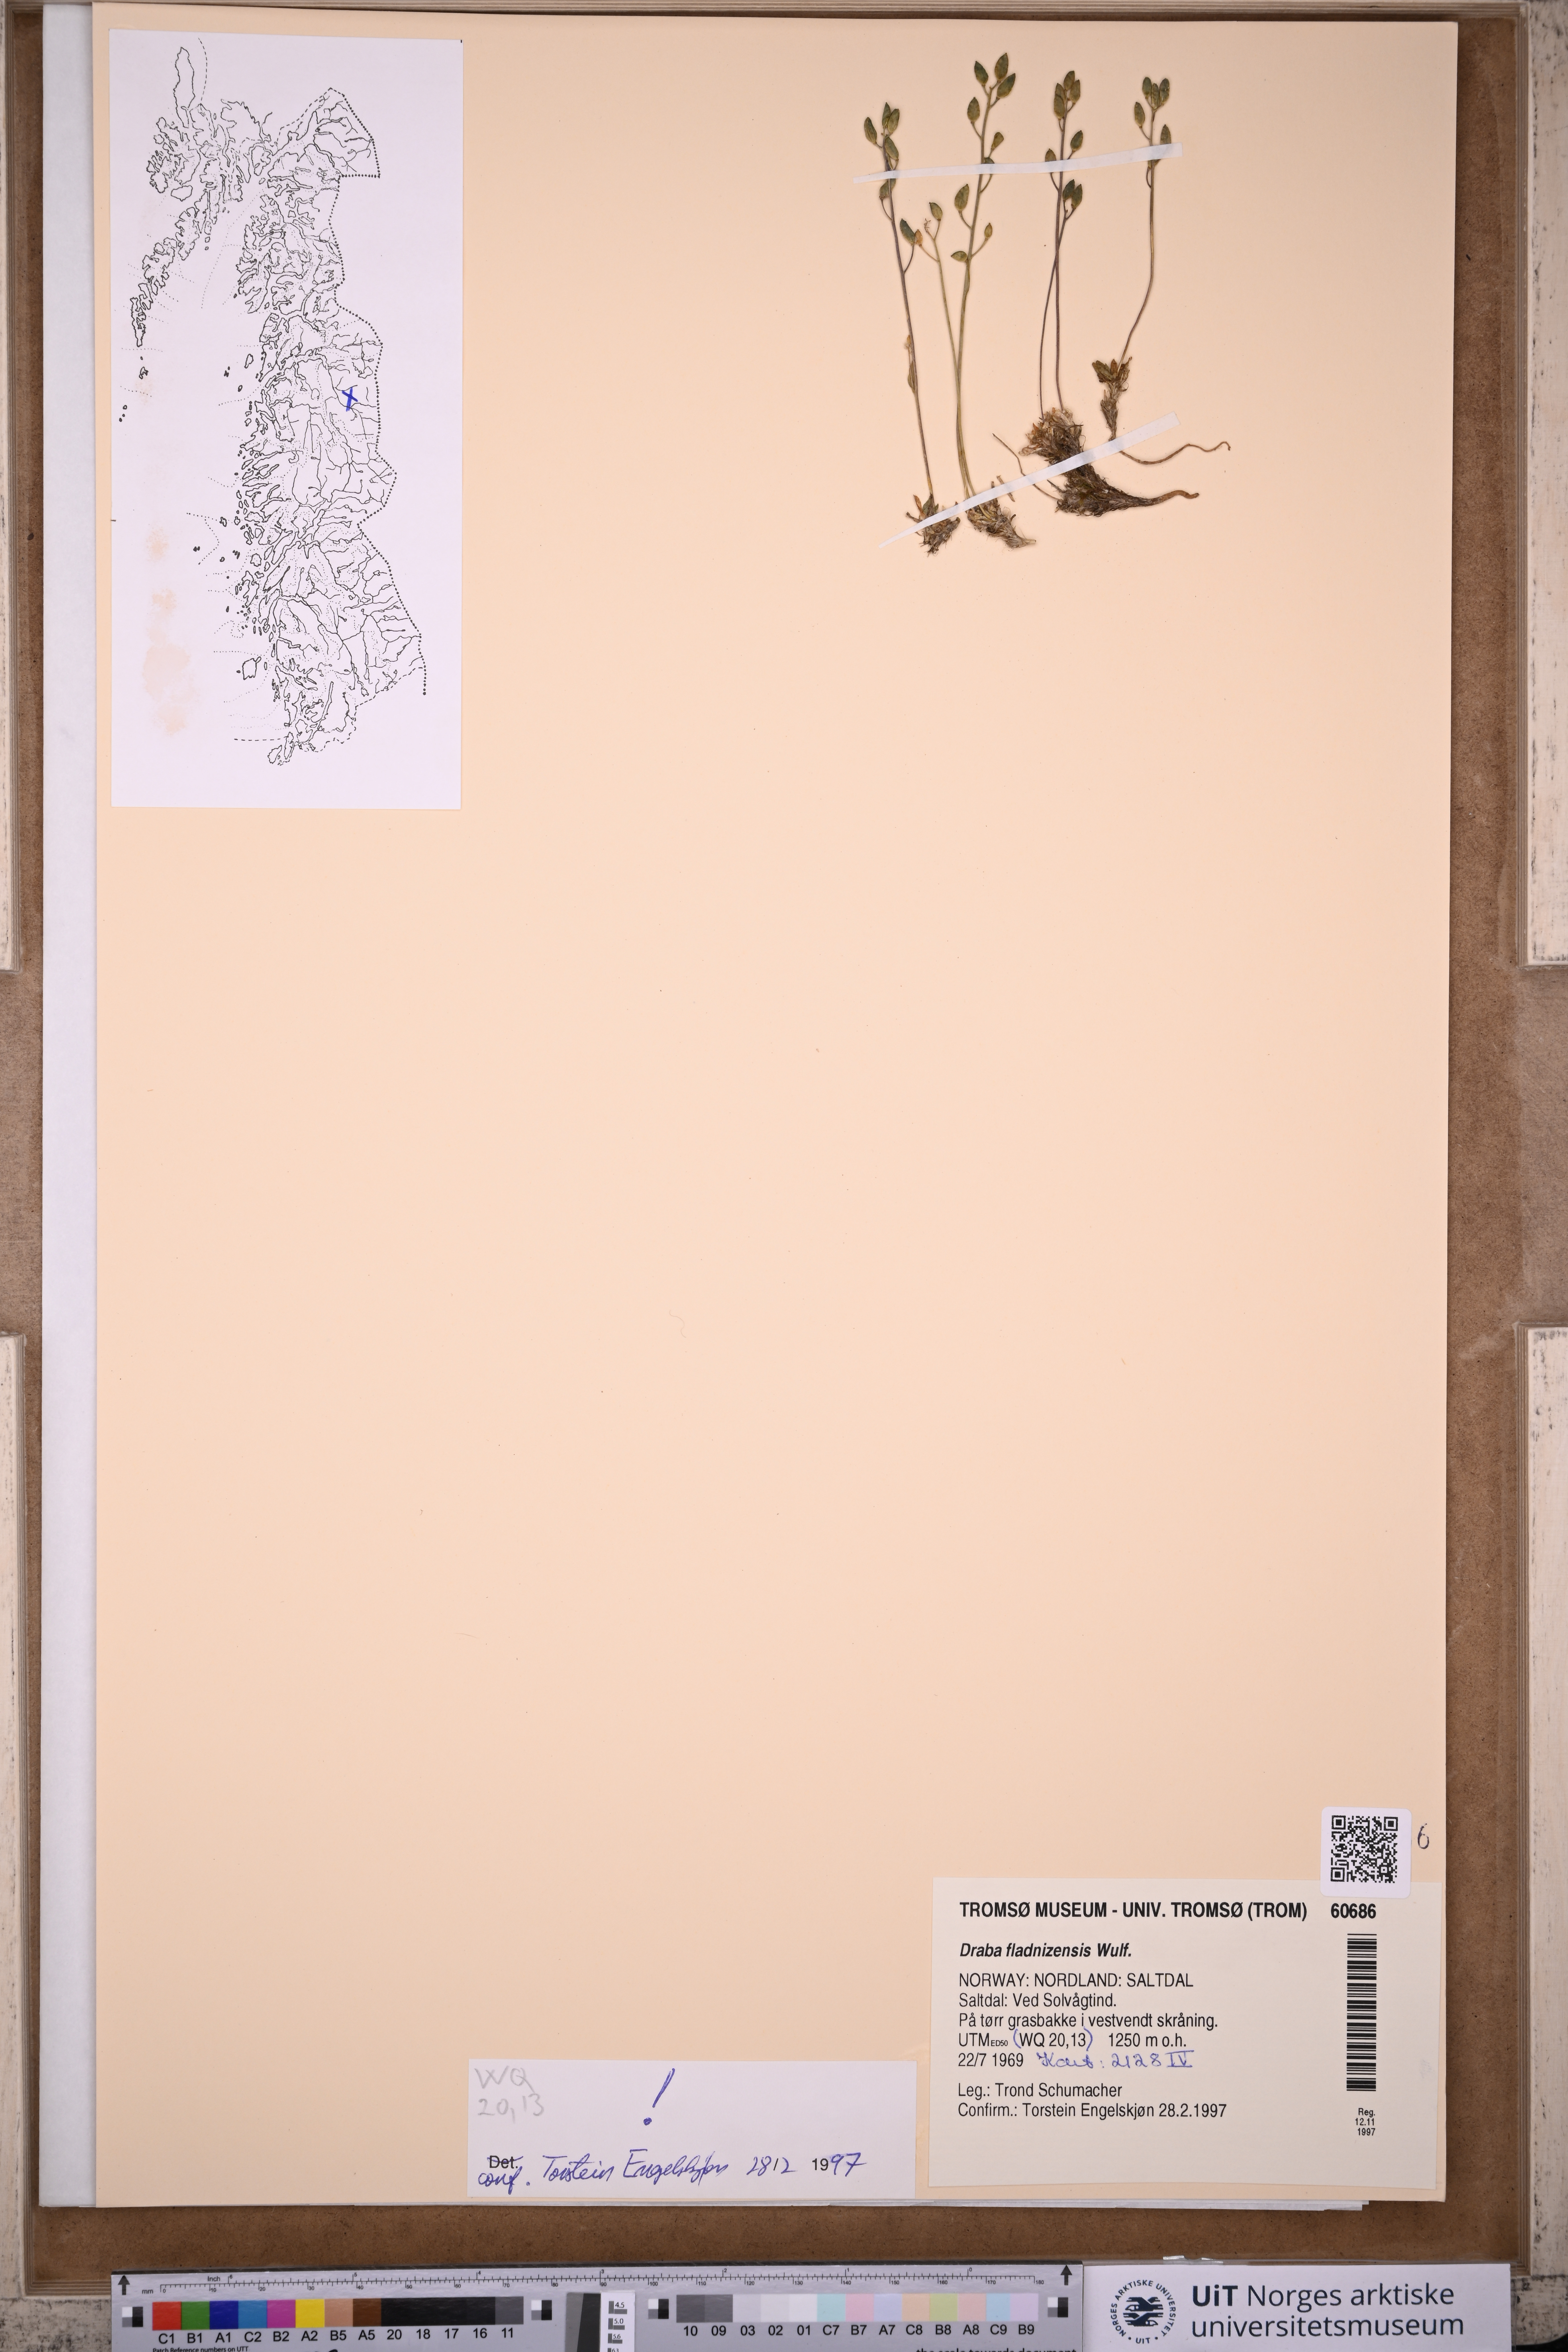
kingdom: Plantae
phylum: Tracheophyta
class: Magnoliopsida
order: Brassicales
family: Brassicaceae
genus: Draba
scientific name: Draba fladnizensis
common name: Austrian draba
